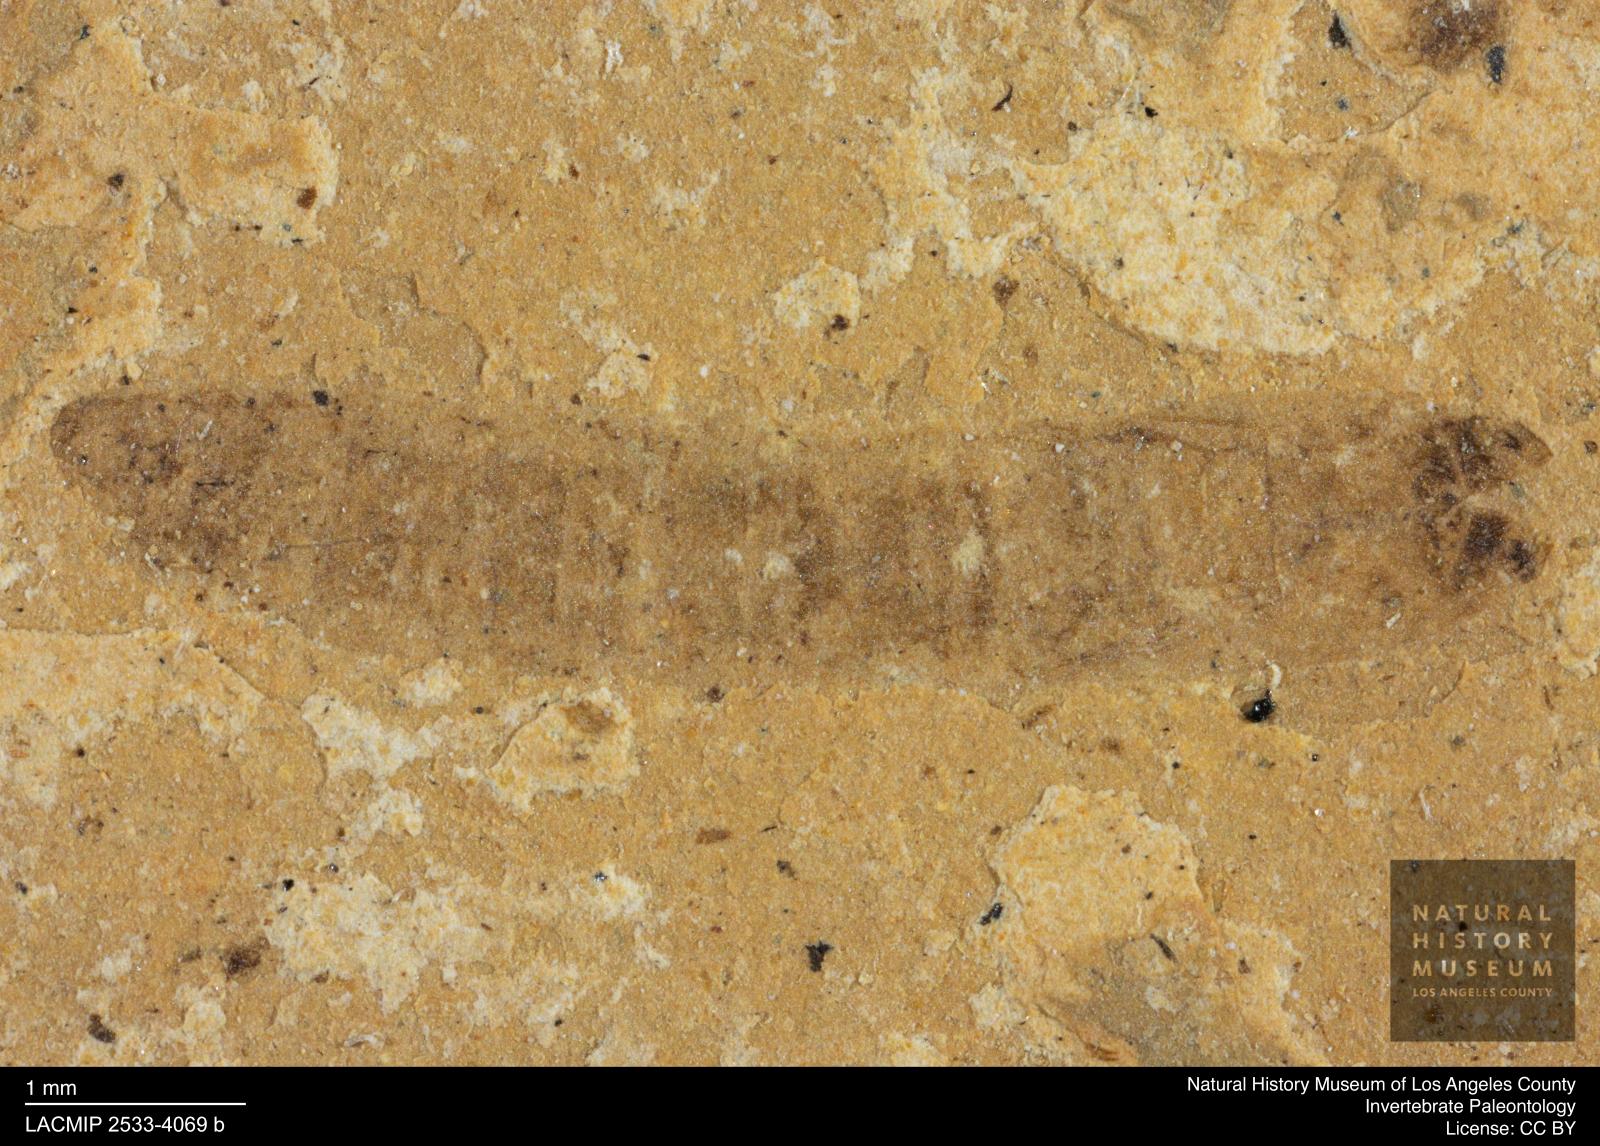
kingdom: Animalia
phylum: Arthropoda
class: Insecta
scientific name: Insecta
